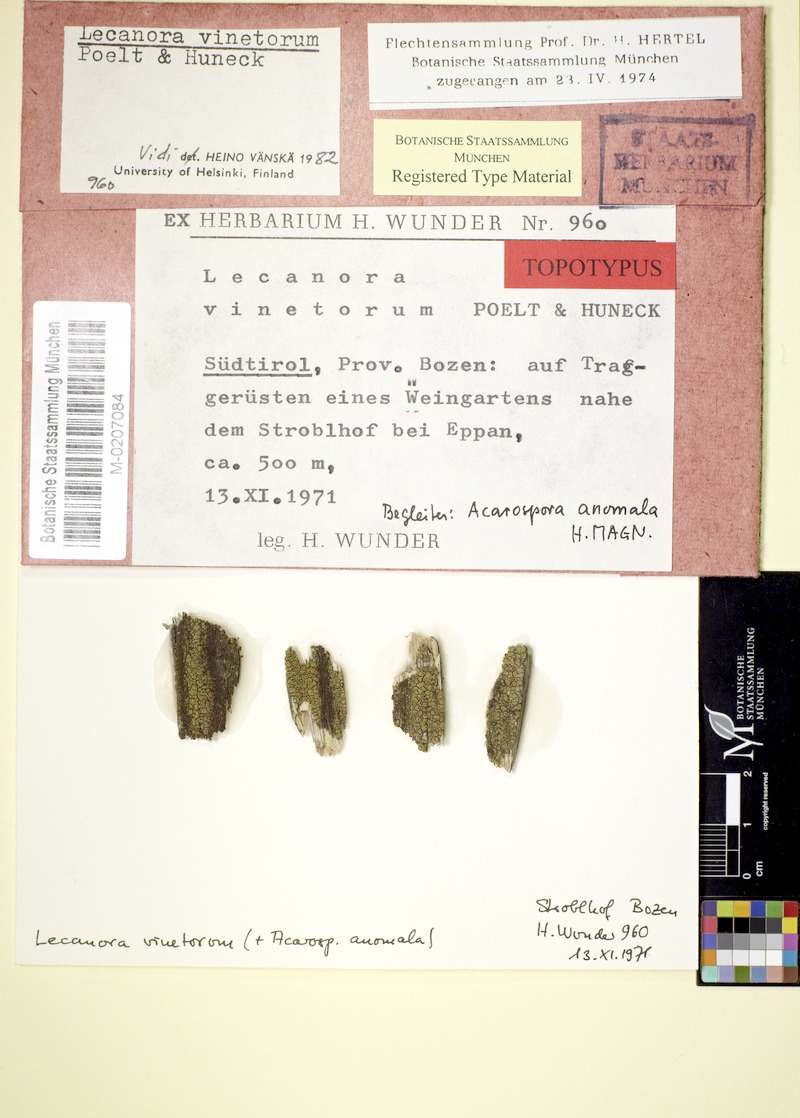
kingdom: Fungi
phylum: Ascomycota
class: Lecanoromycetes
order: Lecanorales
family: Lecanoraceae
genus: Lecanora
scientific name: Lecanora vinetorum
